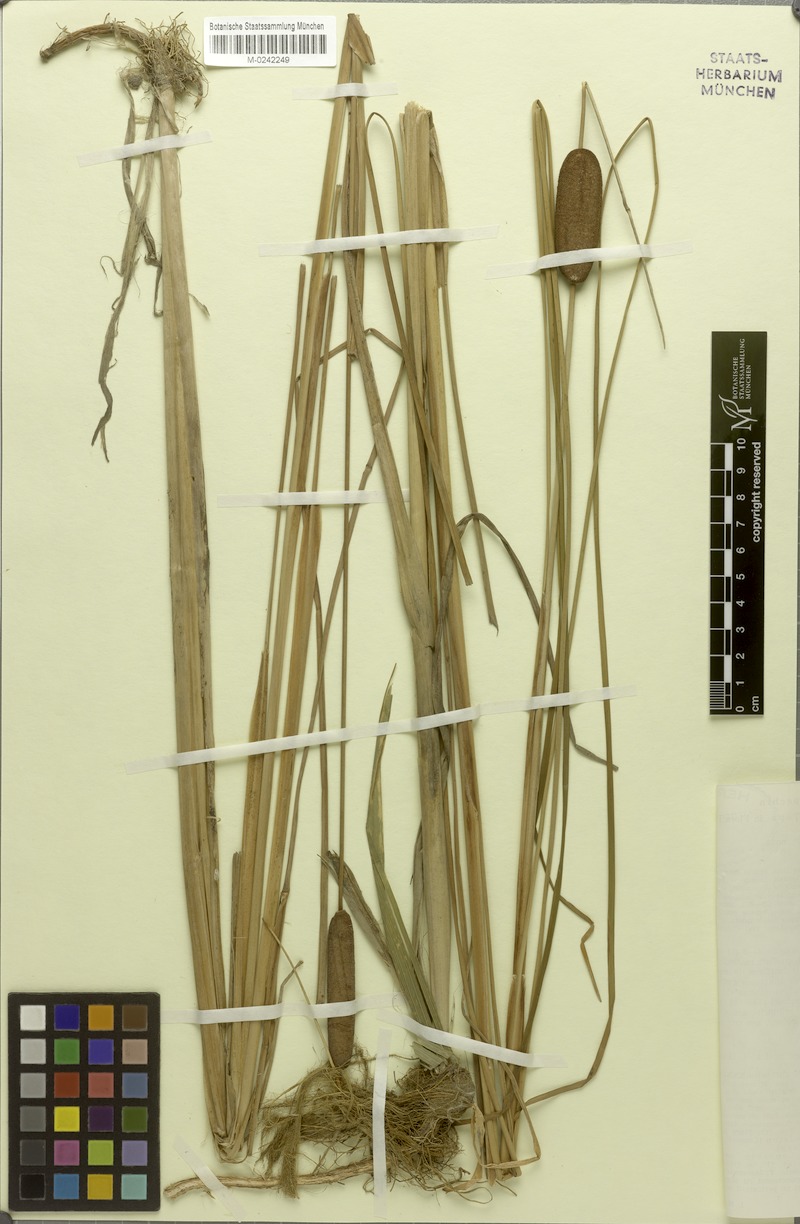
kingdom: Plantae
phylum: Tracheophyta
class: Liliopsida
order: Poales
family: Typhaceae
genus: Typha
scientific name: Typha laxmannii
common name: Laxman’s bulrush
